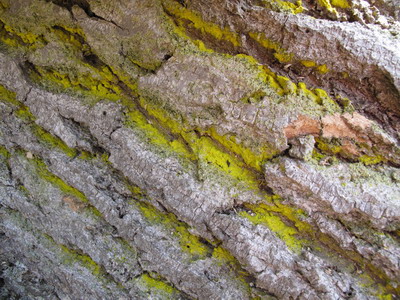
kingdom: Fungi
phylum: Ascomycota
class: Arthoniomycetes
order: Arthoniales
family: Chrysotrichaceae
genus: Chrysothrix
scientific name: Chrysothrix candelaris
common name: gul støvlav
